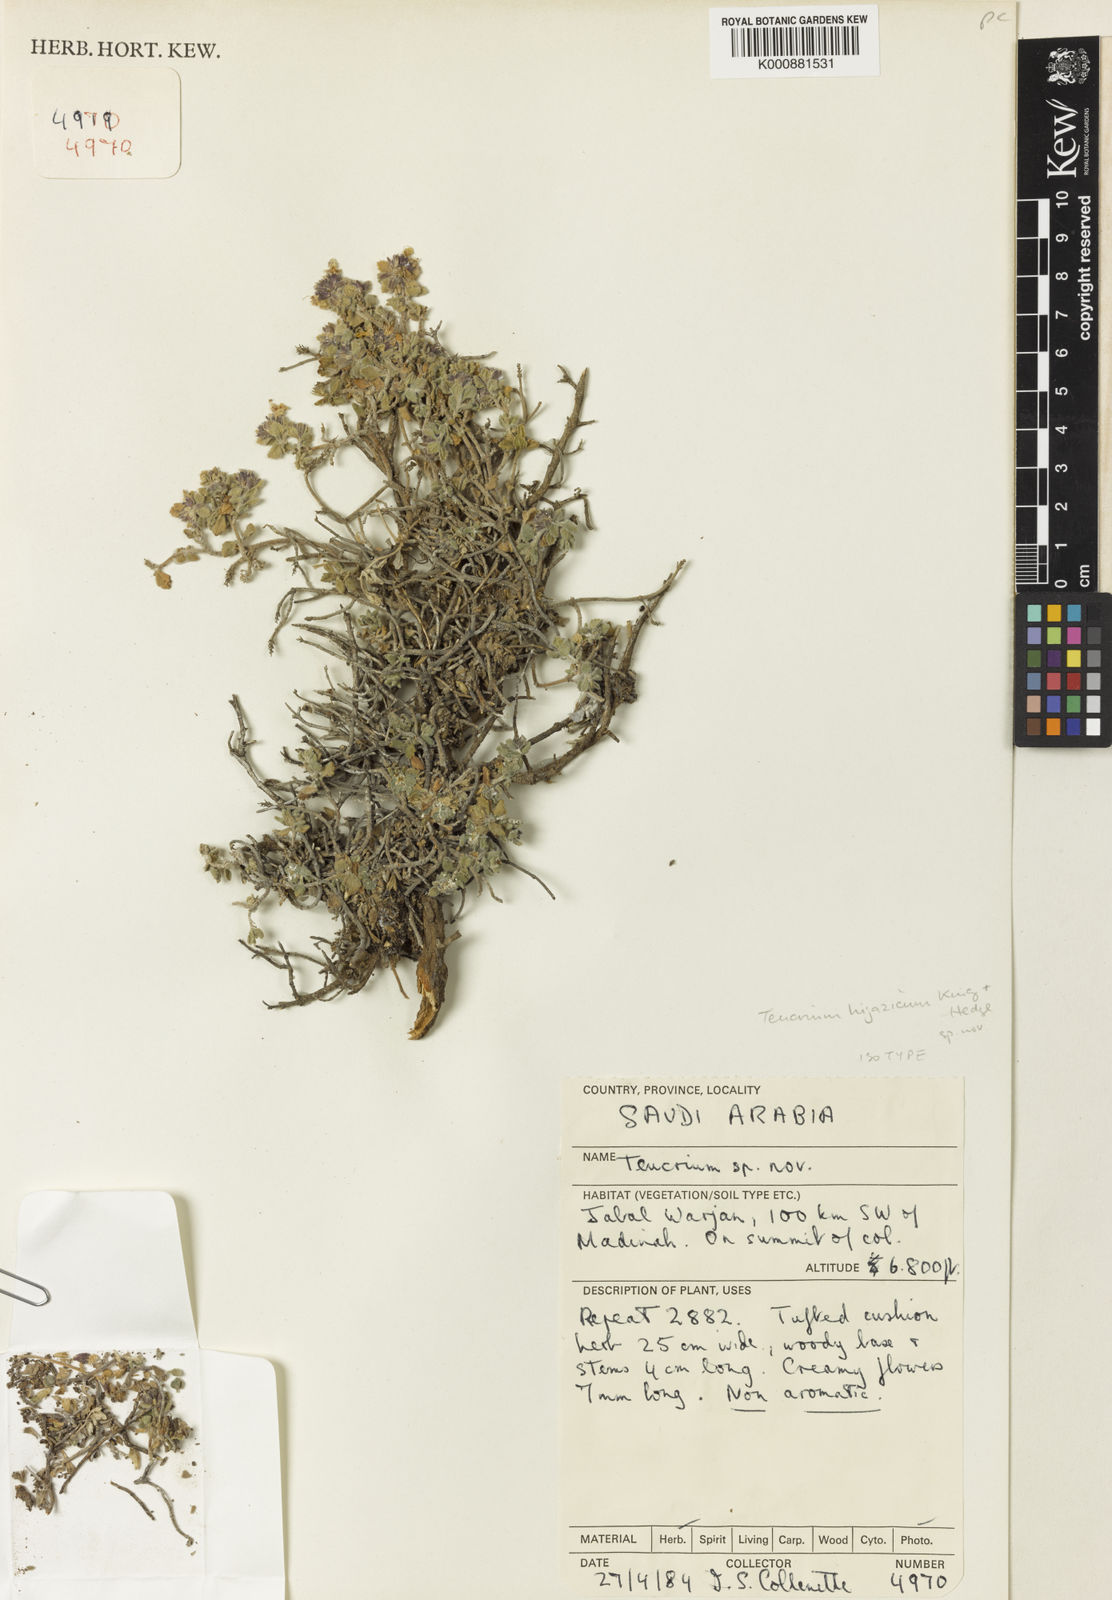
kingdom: Plantae
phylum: Tracheophyta
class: Magnoliopsida
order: Lamiales
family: Lamiaceae
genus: Teucrium
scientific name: Teucrium hijazicum
